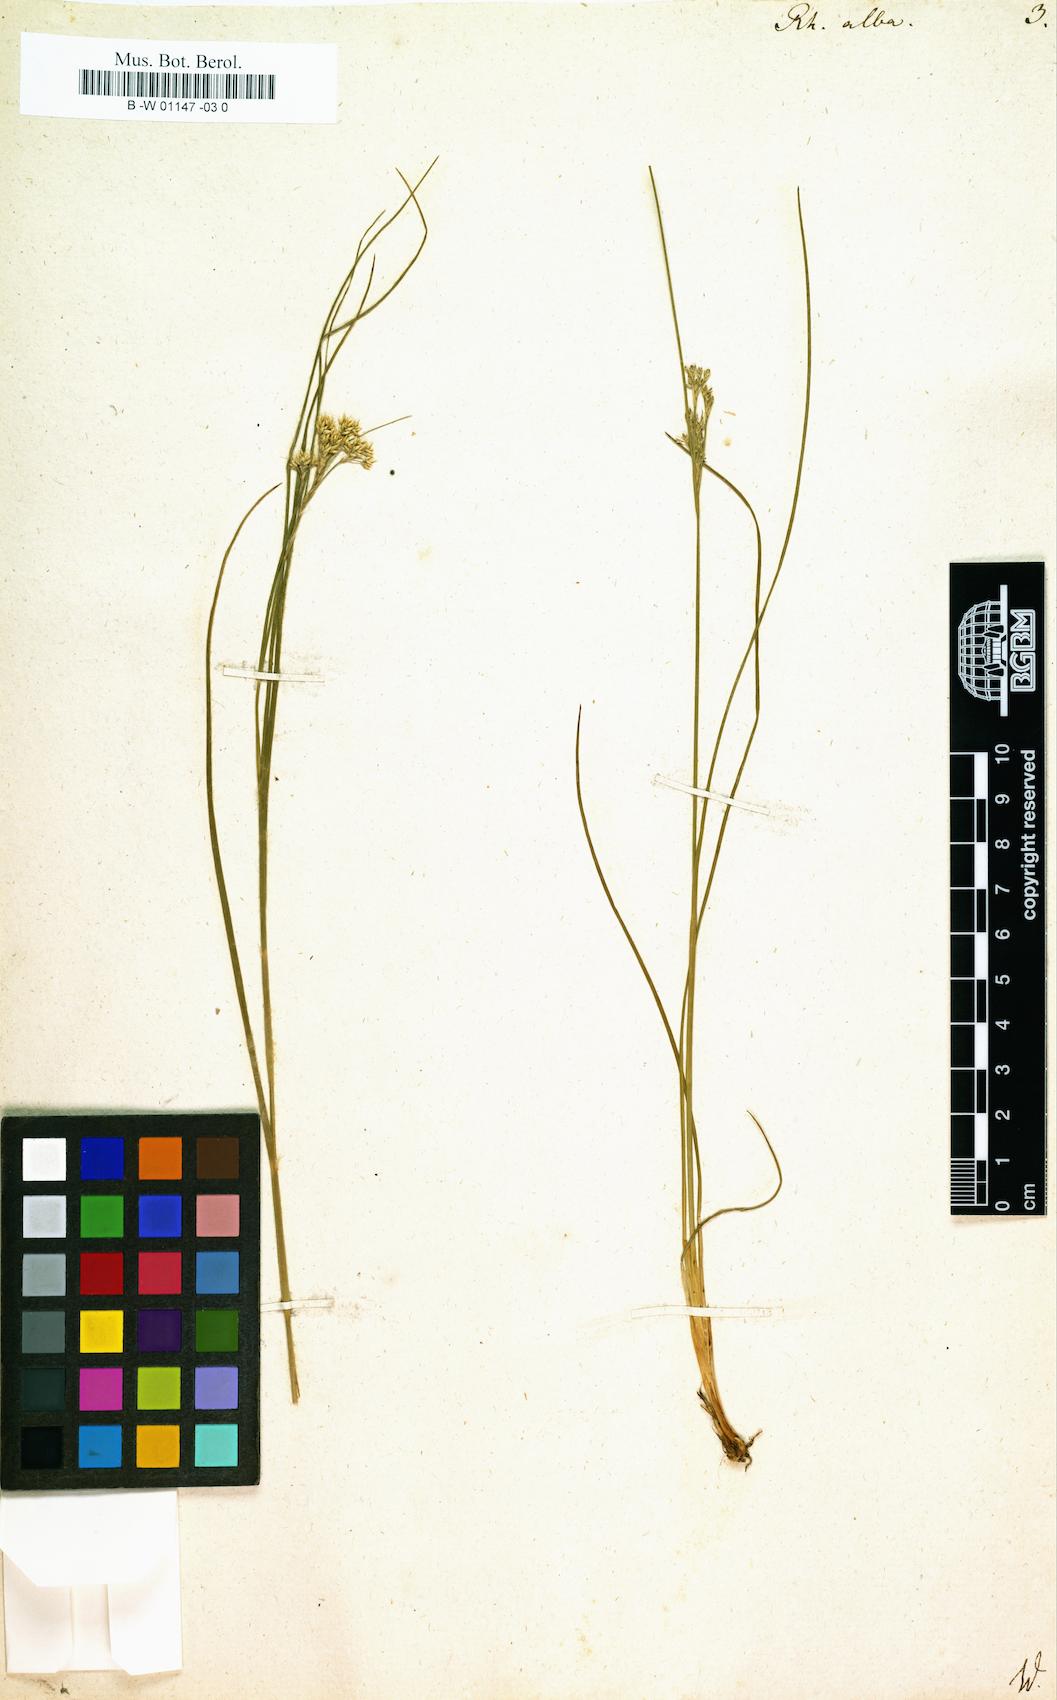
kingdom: Plantae
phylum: Tracheophyta
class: Liliopsida
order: Poales
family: Cyperaceae
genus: Rhynchospora
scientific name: Rhynchospora alba
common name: White beak-sedge
